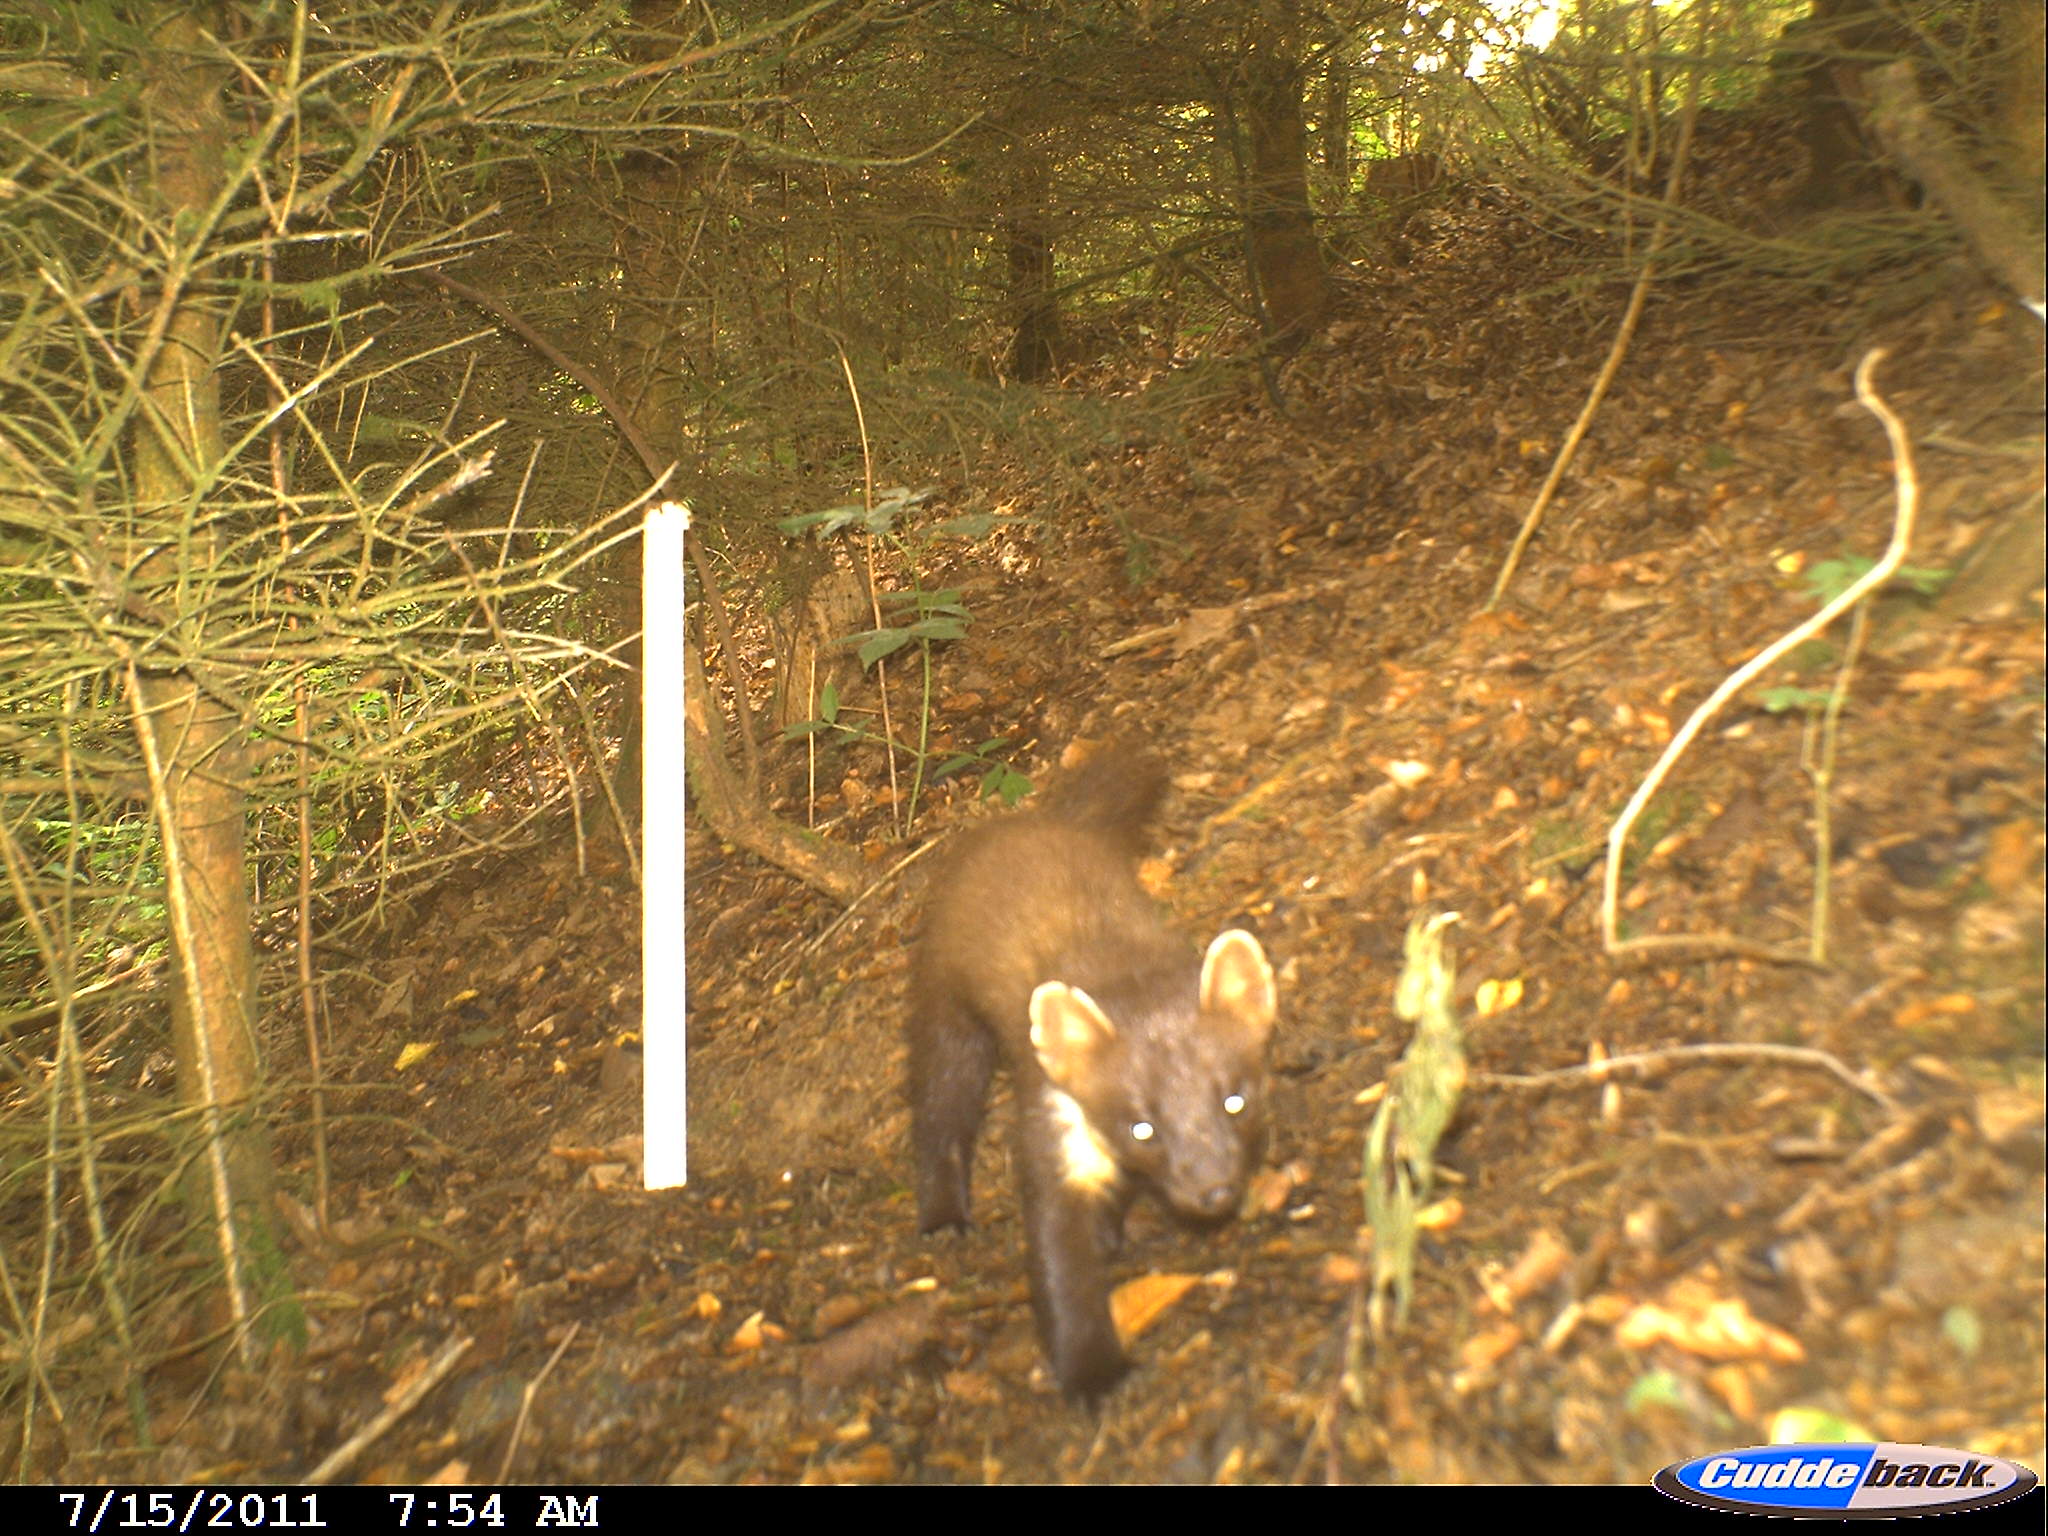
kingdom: Animalia
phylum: Chordata
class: Mammalia
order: Carnivora
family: Mustelidae
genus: Martes
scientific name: Martes martes
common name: European pine marten
